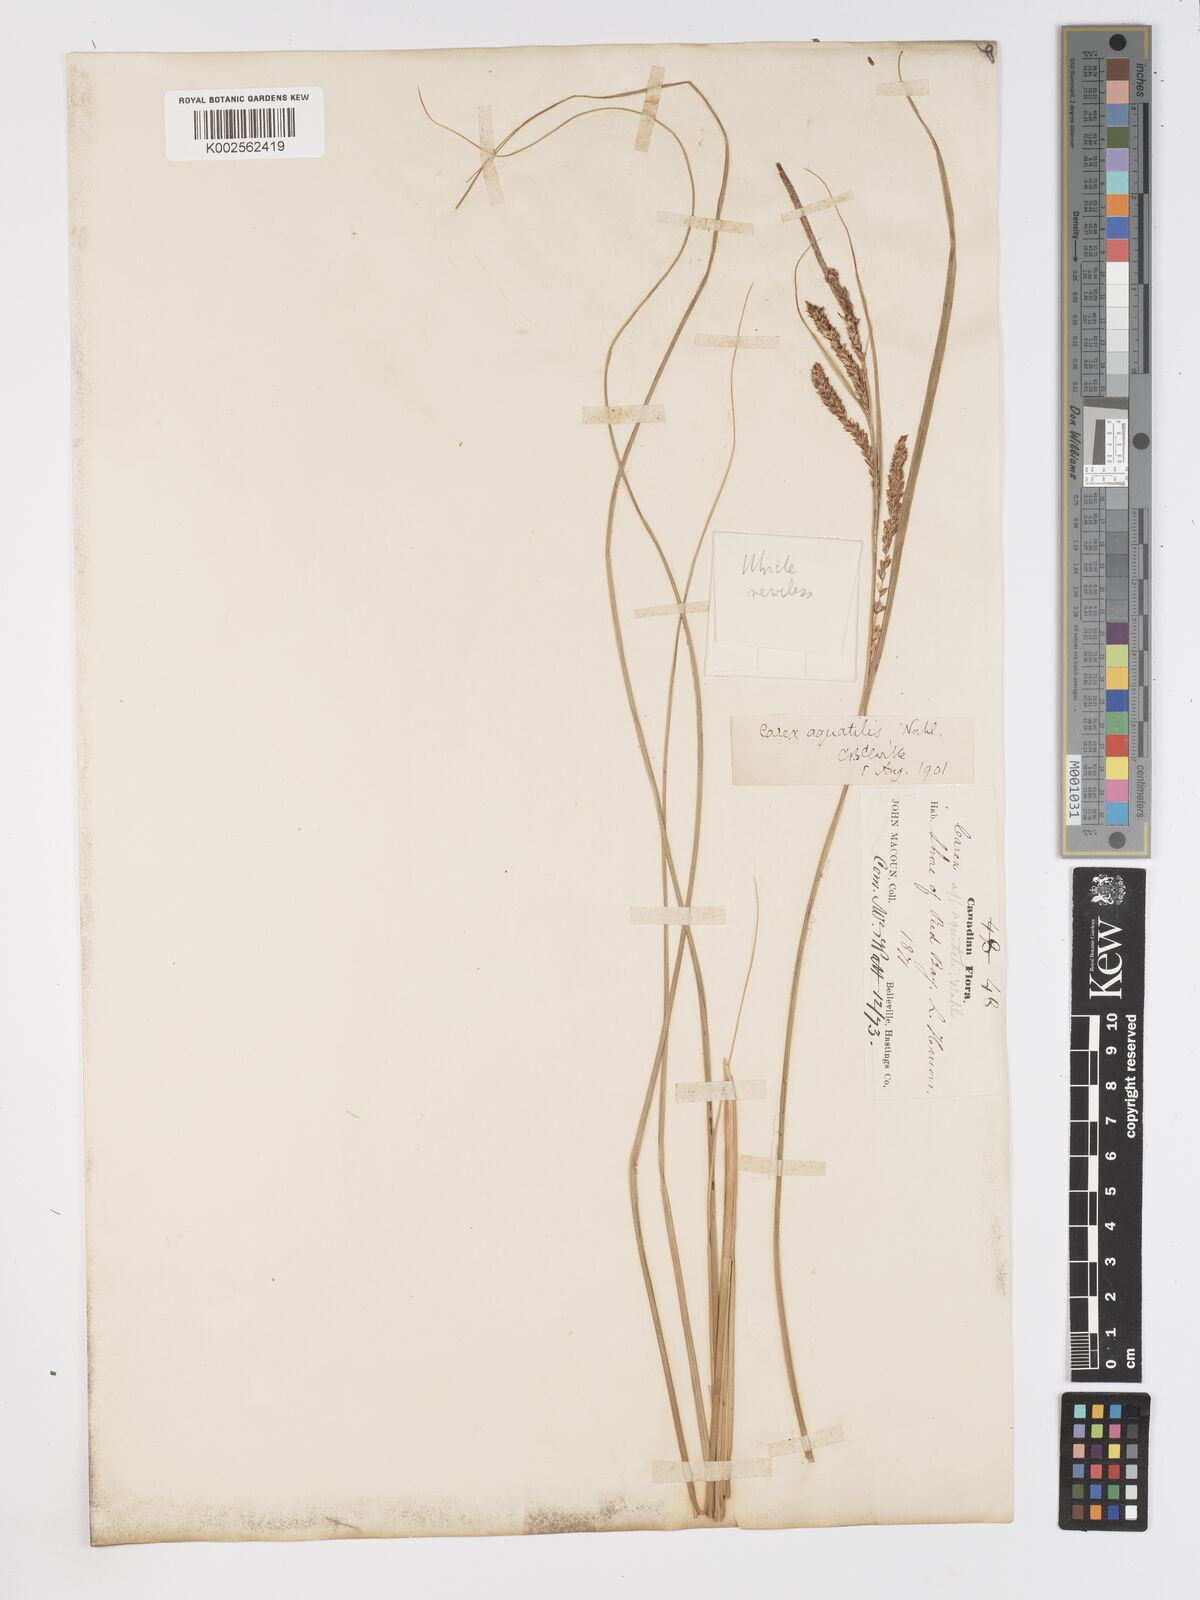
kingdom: Plantae
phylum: Tracheophyta
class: Liliopsida
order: Poales
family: Cyperaceae
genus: Carex
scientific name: Carex aquatilis
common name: Water sedge
